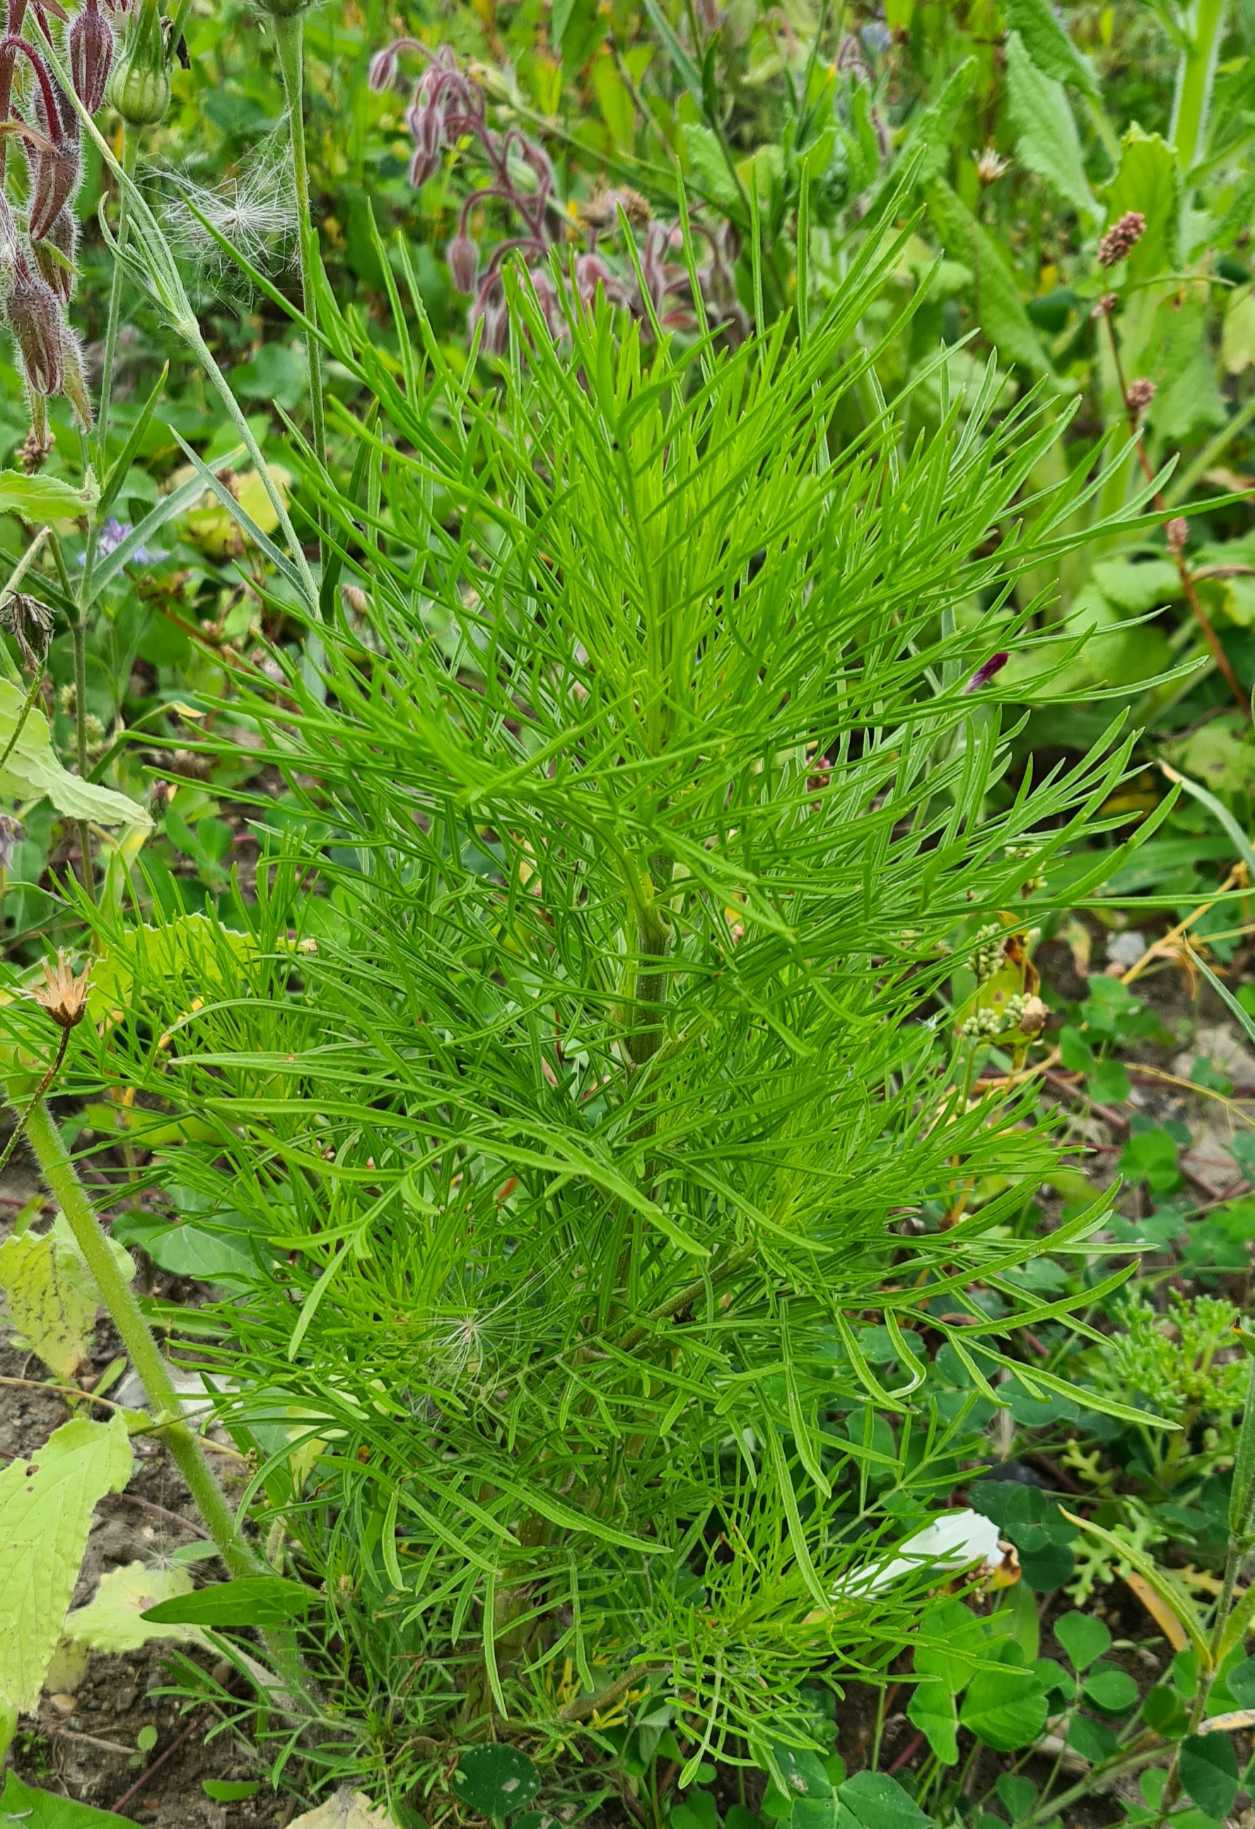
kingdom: Plantae
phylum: Tracheophyta
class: Magnoliopsida
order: Asterales
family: Asteraceae
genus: Cosmos
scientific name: Cosmos bipinnatus
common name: Stolt kavaler
